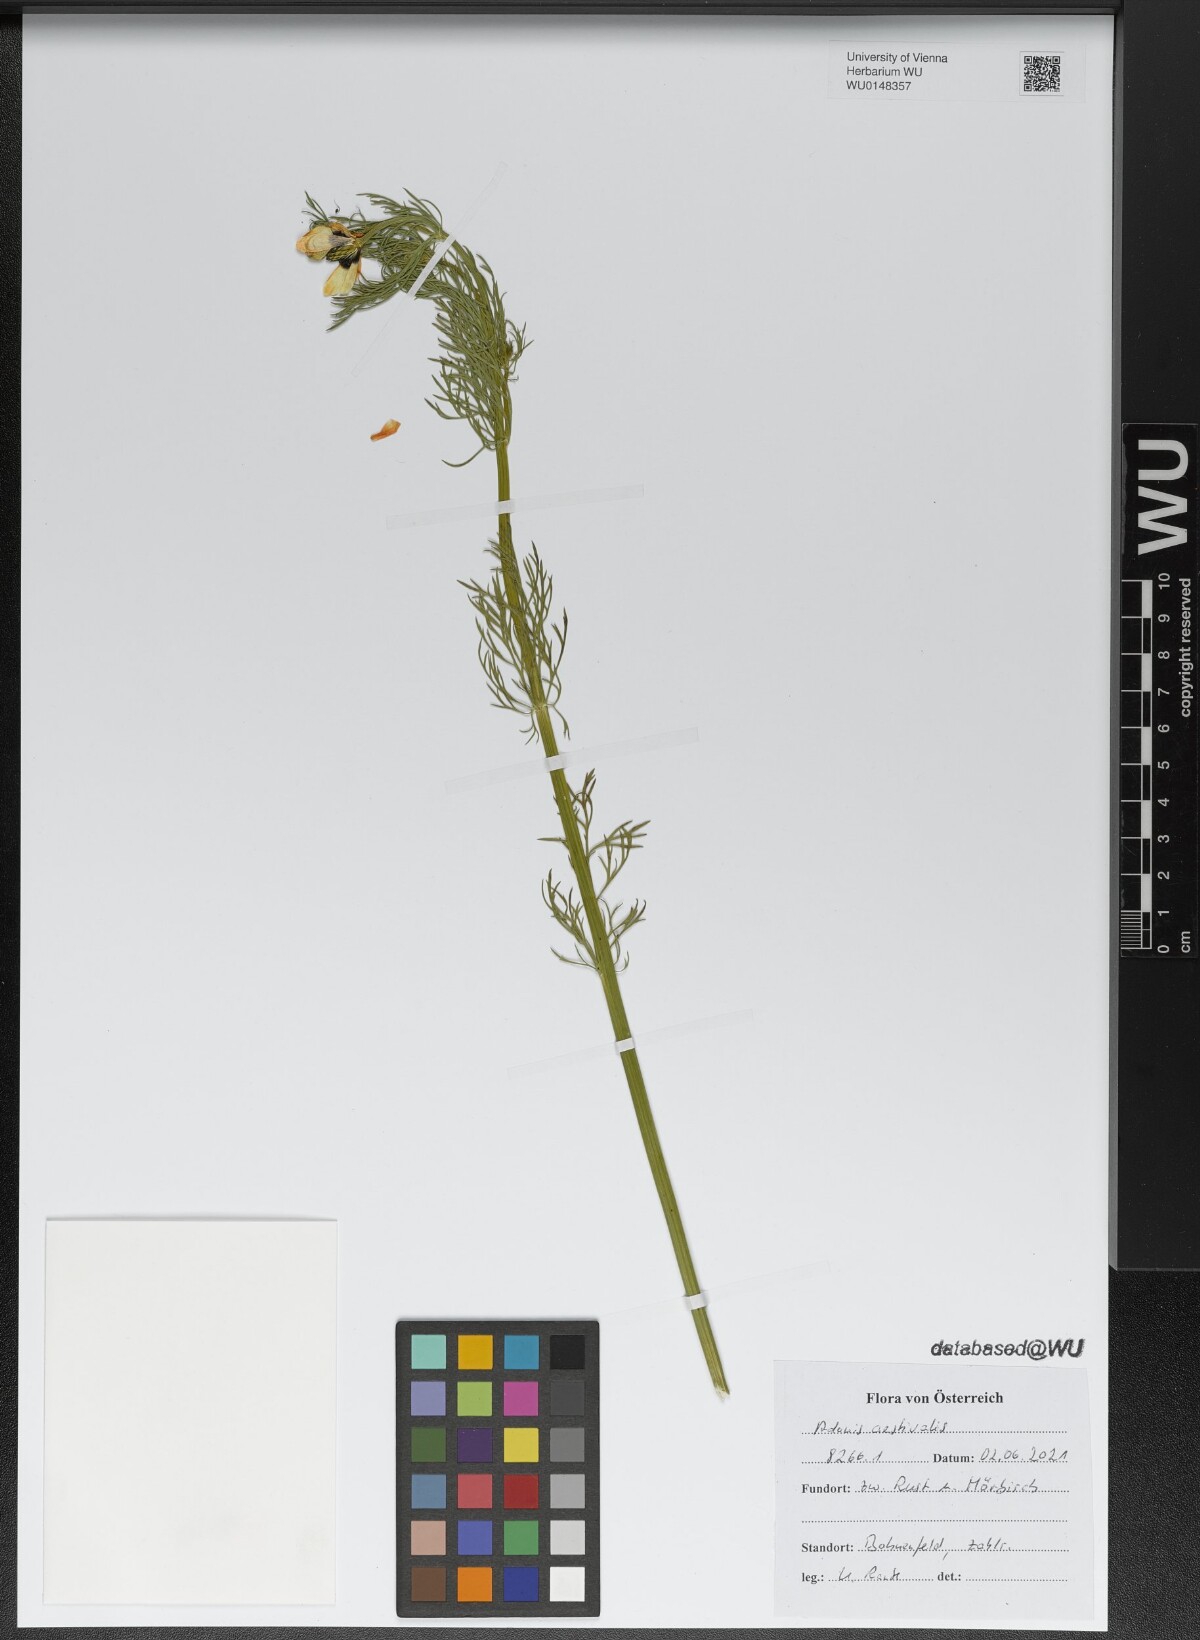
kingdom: Plantae
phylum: Tracheophyta
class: Magnoliopsida
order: Ranunculales
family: Ranunculaceae
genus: Adonis
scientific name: Adonis aestivalis
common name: Summer pheasant's-eye
